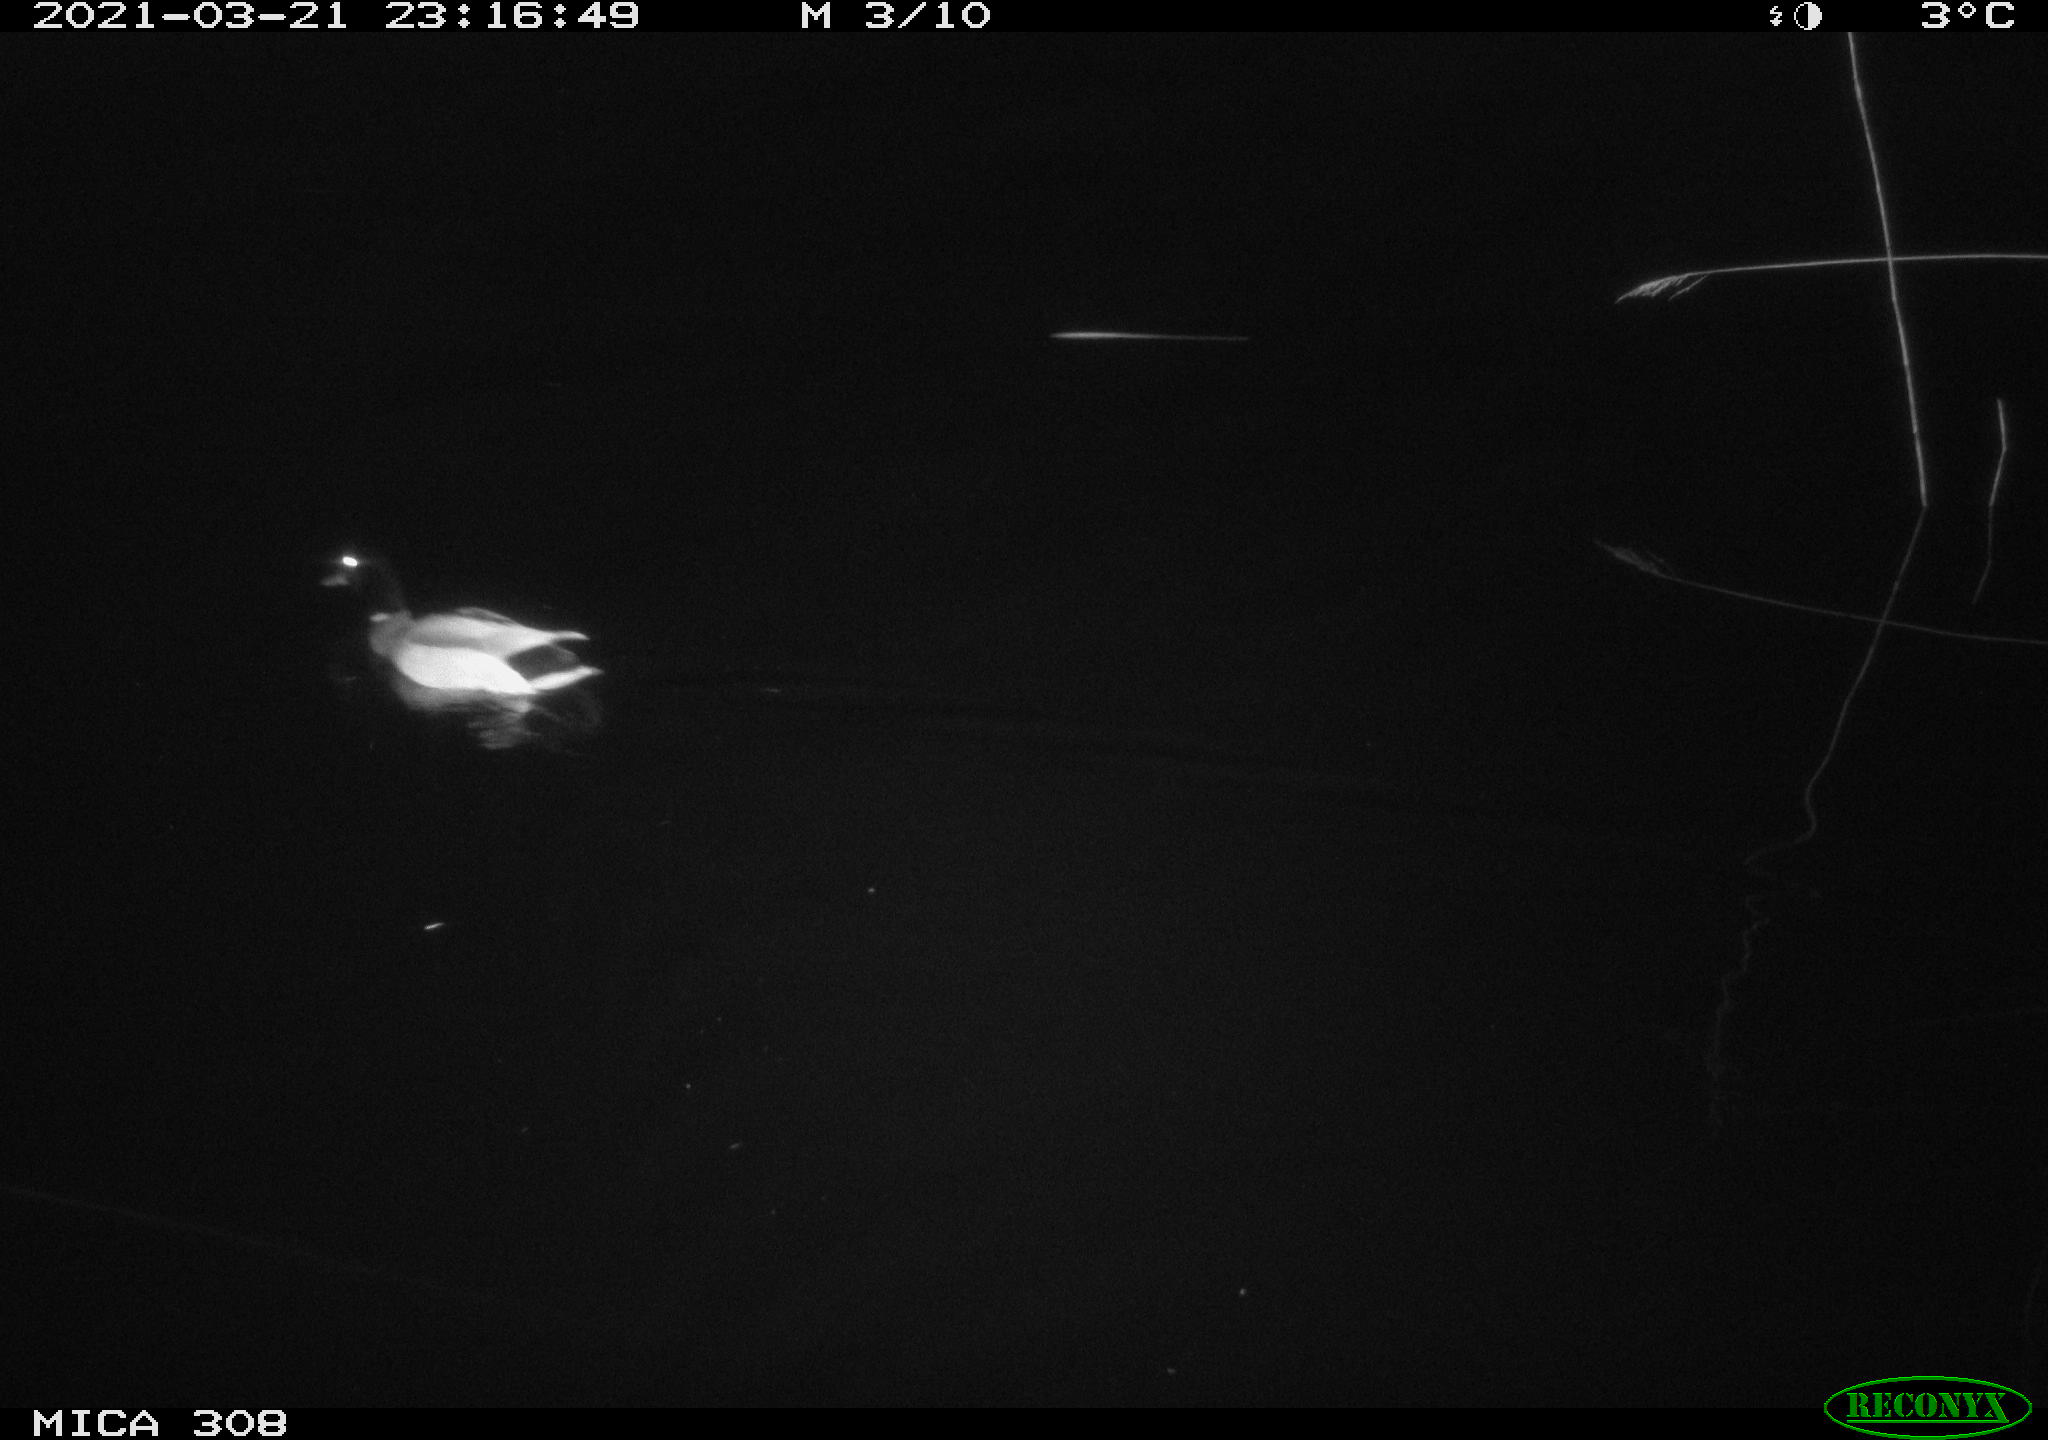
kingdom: Animalia
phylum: Chordata
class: Aves
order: Anseriformes
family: Anatidae
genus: Anas
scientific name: Anas platyrhynchos
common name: Mallard
